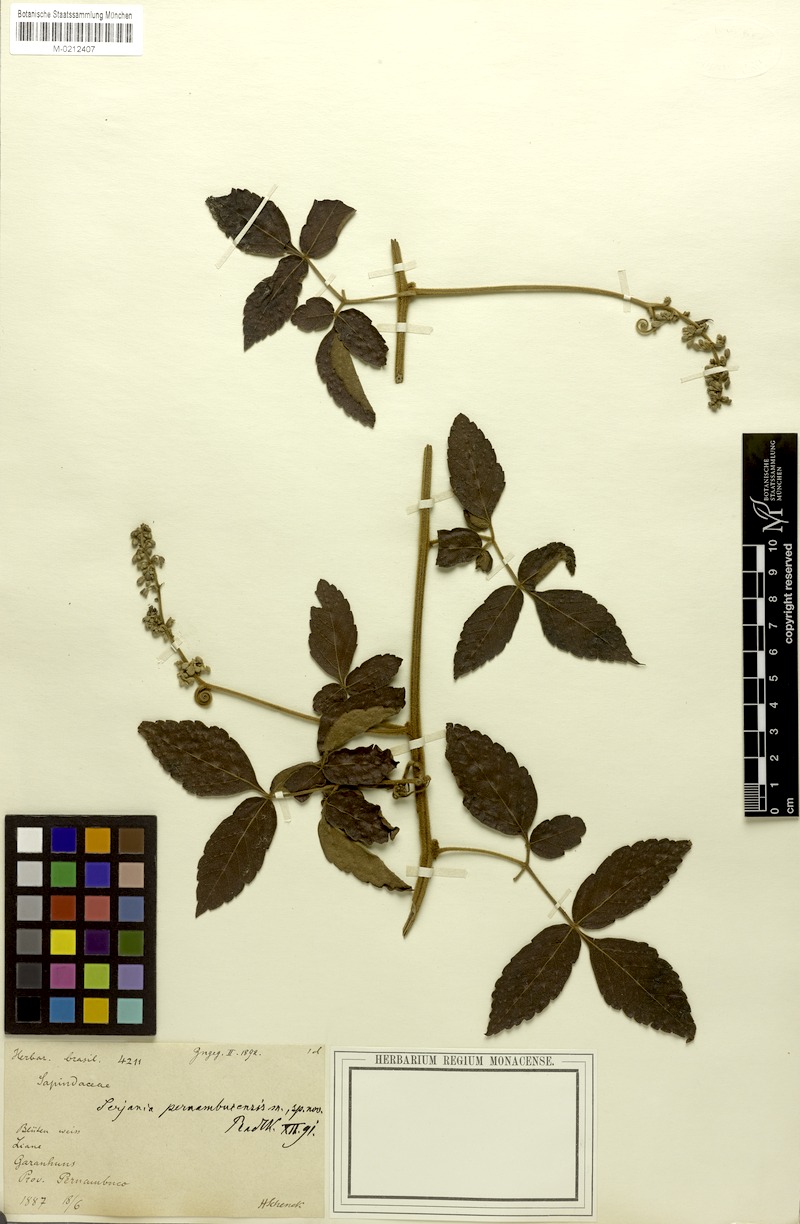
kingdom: Plantae
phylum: Tracheophyta
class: Magnoliopsida
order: Sapindales
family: Sapindaceae
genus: Serjania
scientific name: Serjania pernambucensis
